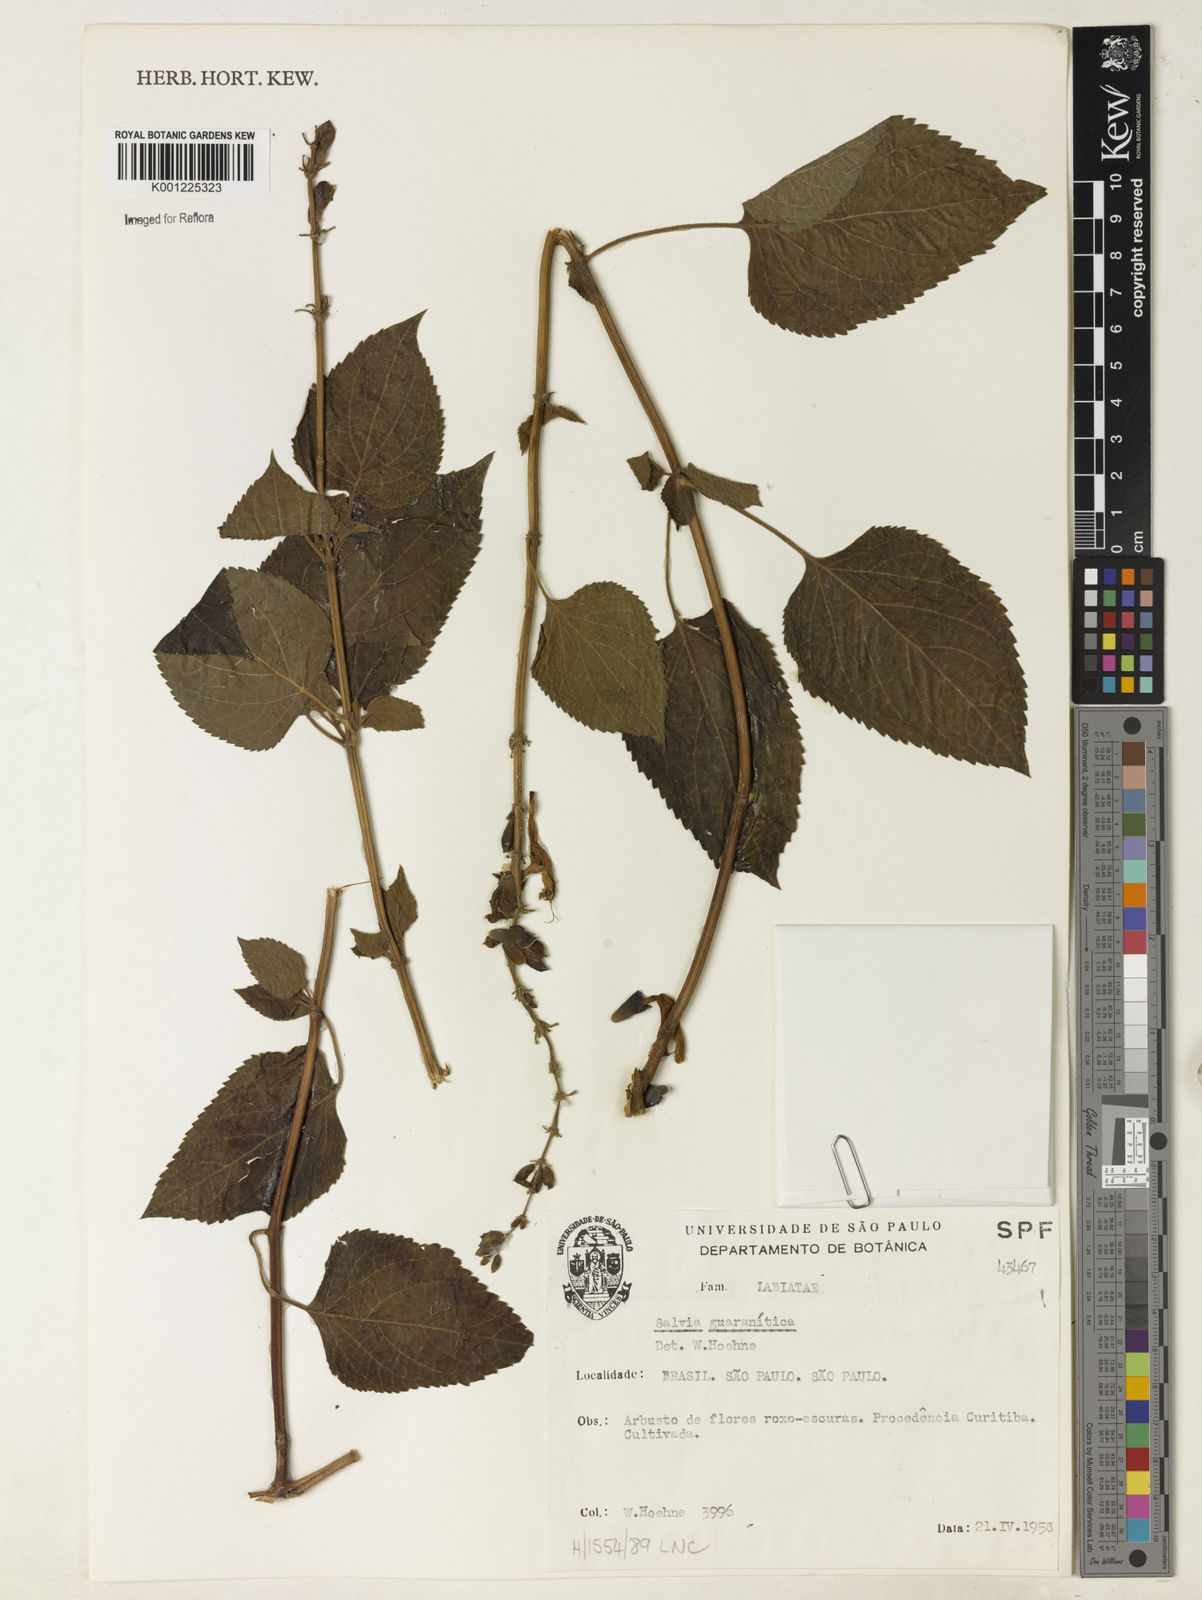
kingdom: Plantae
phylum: Tracheophyta
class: Magnoliopsida
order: Lamiales
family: Lamiaceae
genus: Salvia
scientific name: Salvia guaranitica
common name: Anise-scented sage
